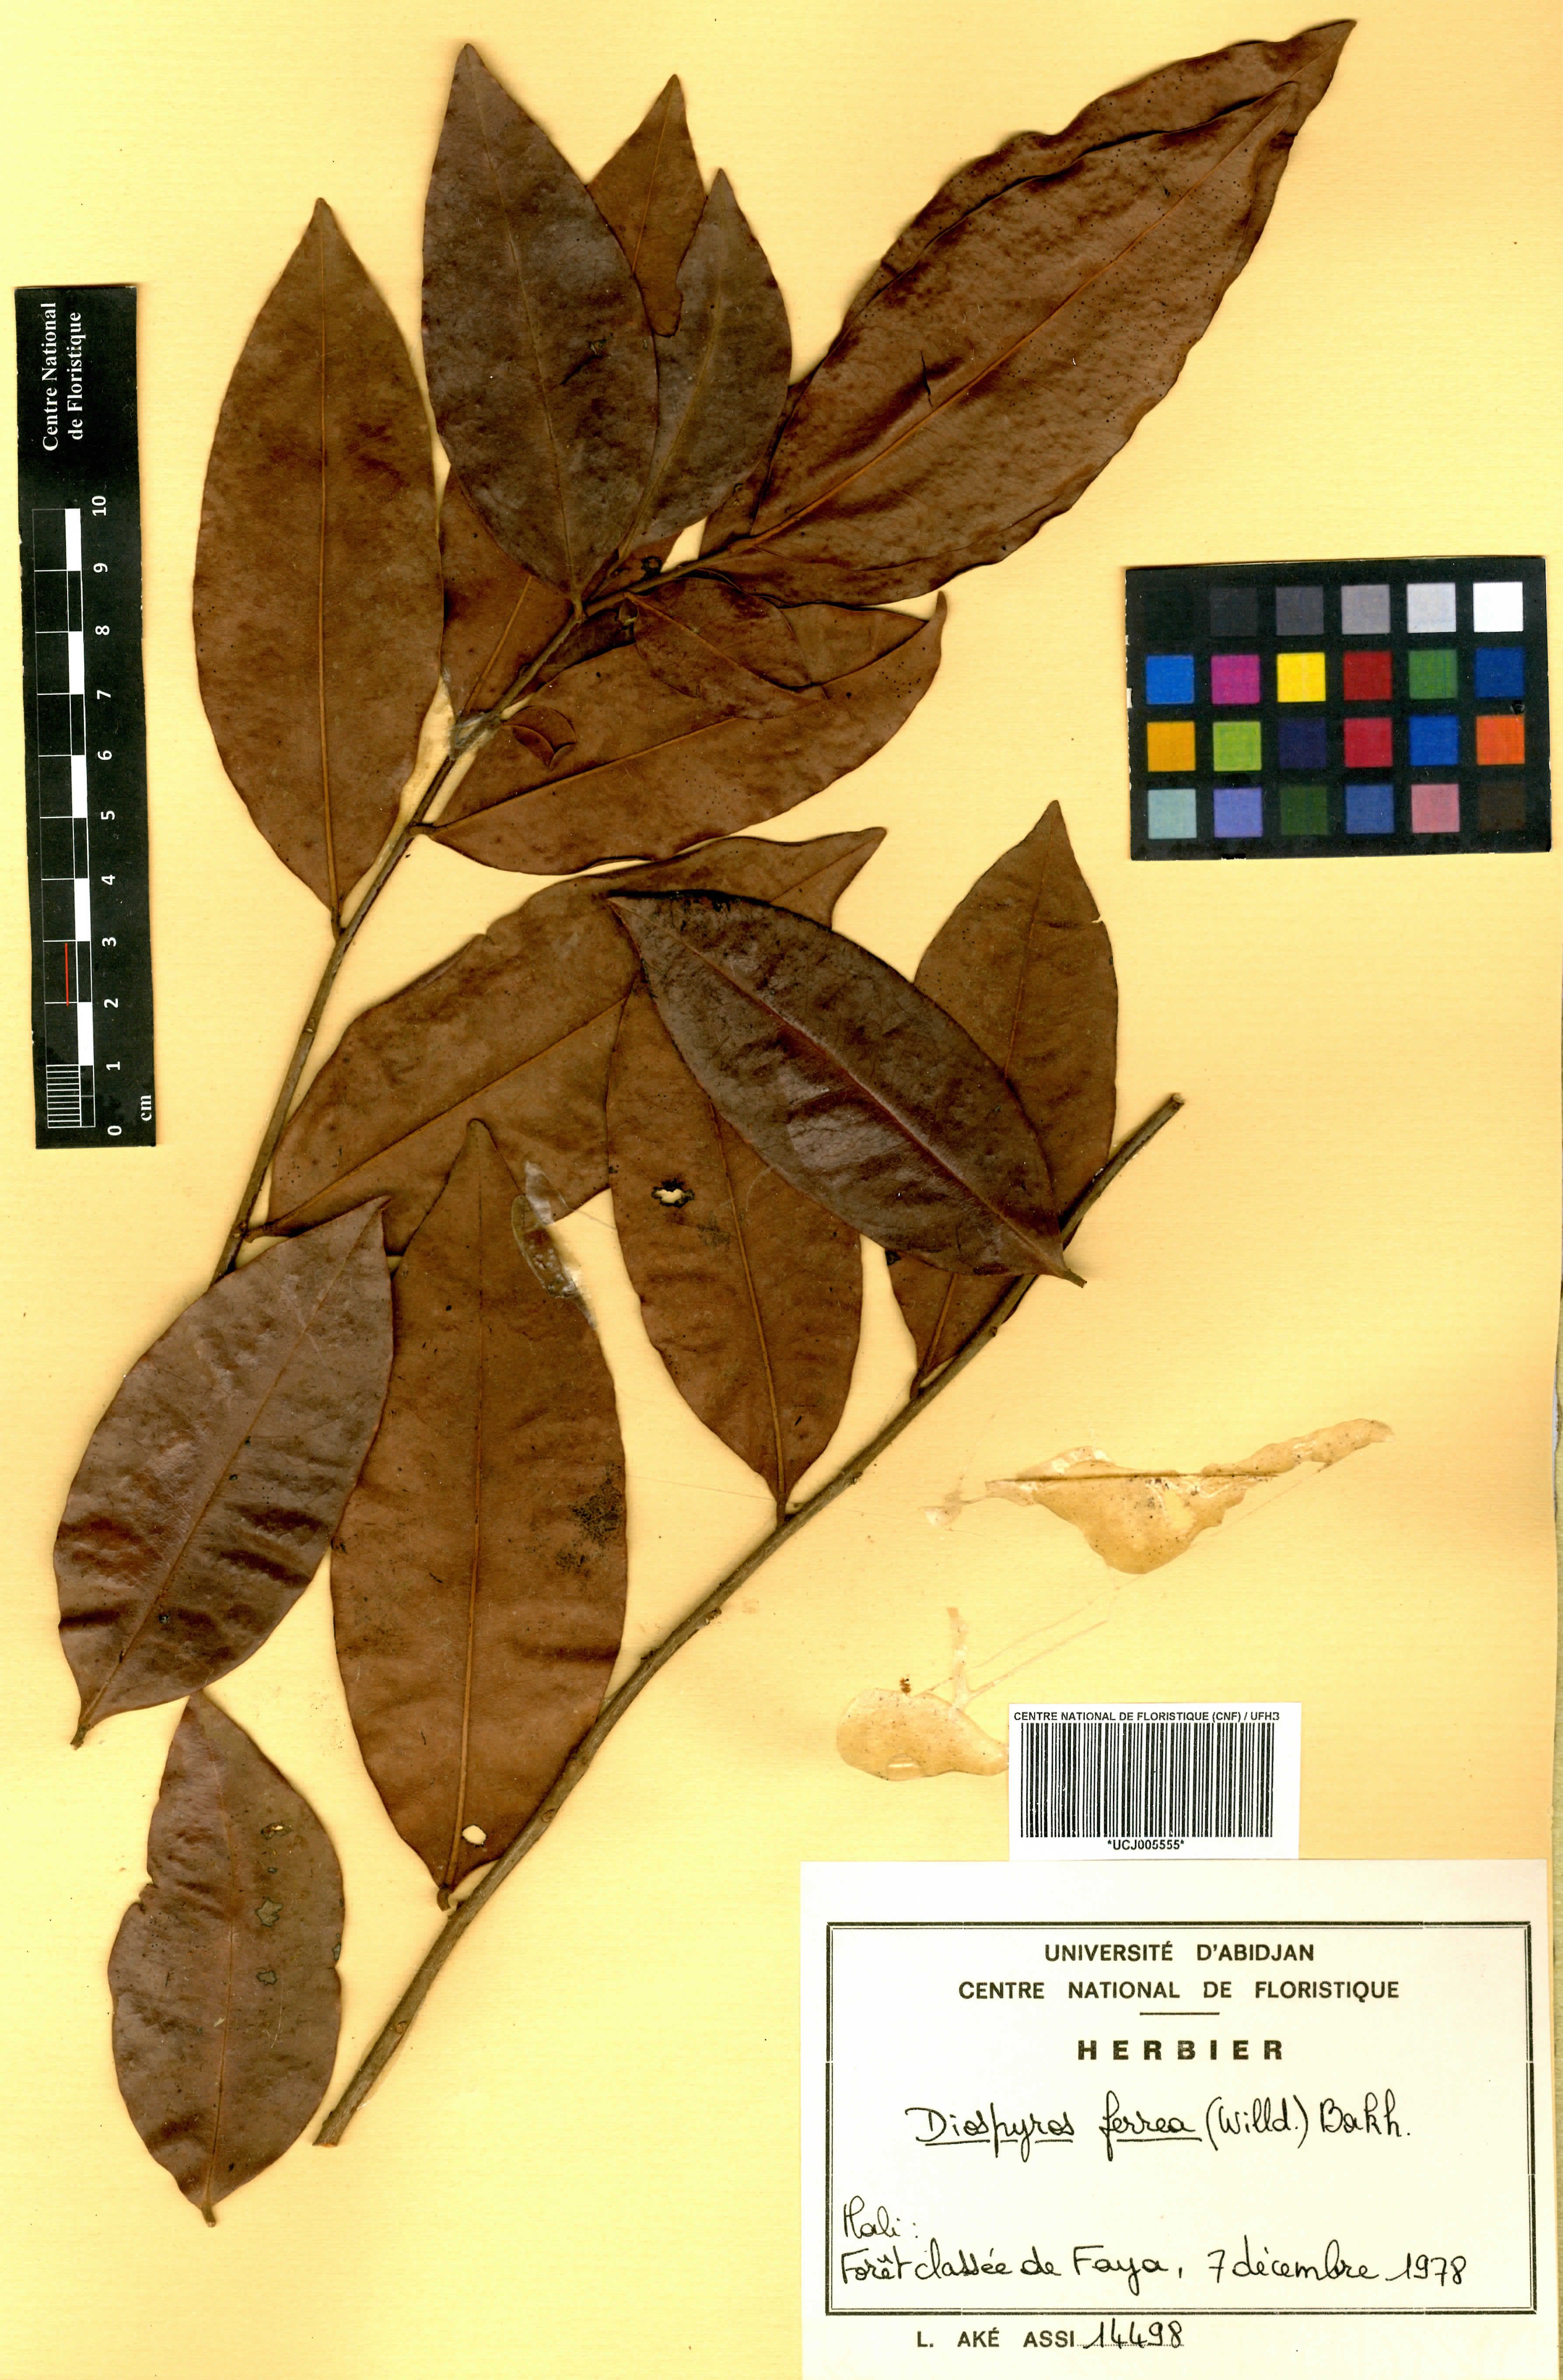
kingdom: Plantae
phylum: Tracheophyta
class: Magnoliopsida
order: Ericales
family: Ebenaceae
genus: Diospyros
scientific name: Diospyros ferrea
